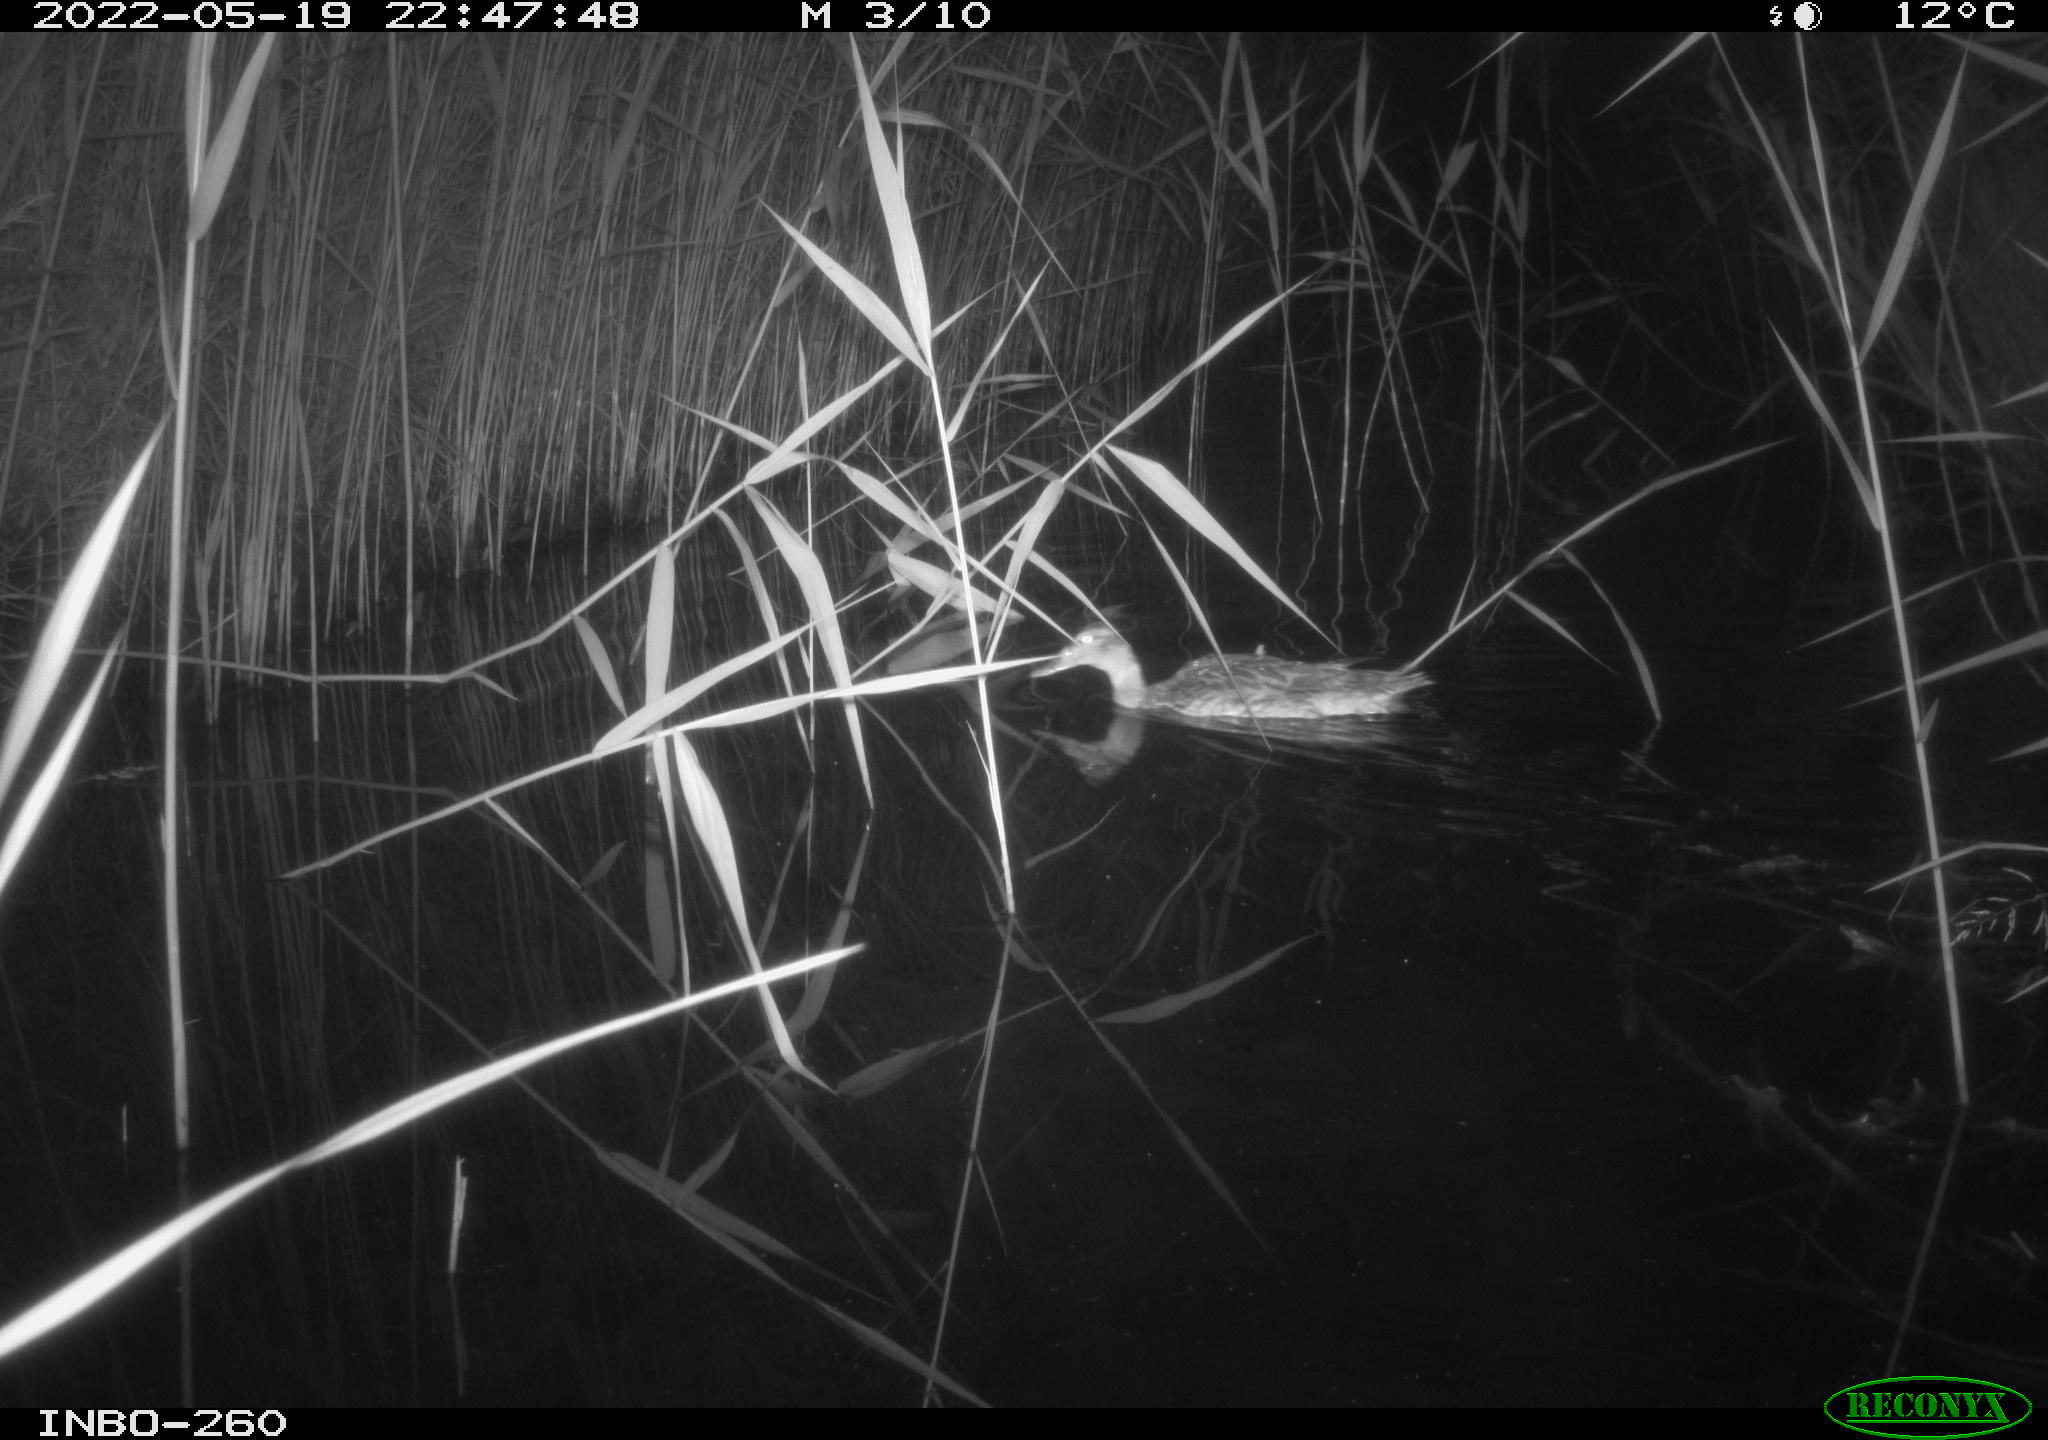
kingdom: Animalia
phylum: Chordata
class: Aves
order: Anseriformes
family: Anatidae
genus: Anas
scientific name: Anas
